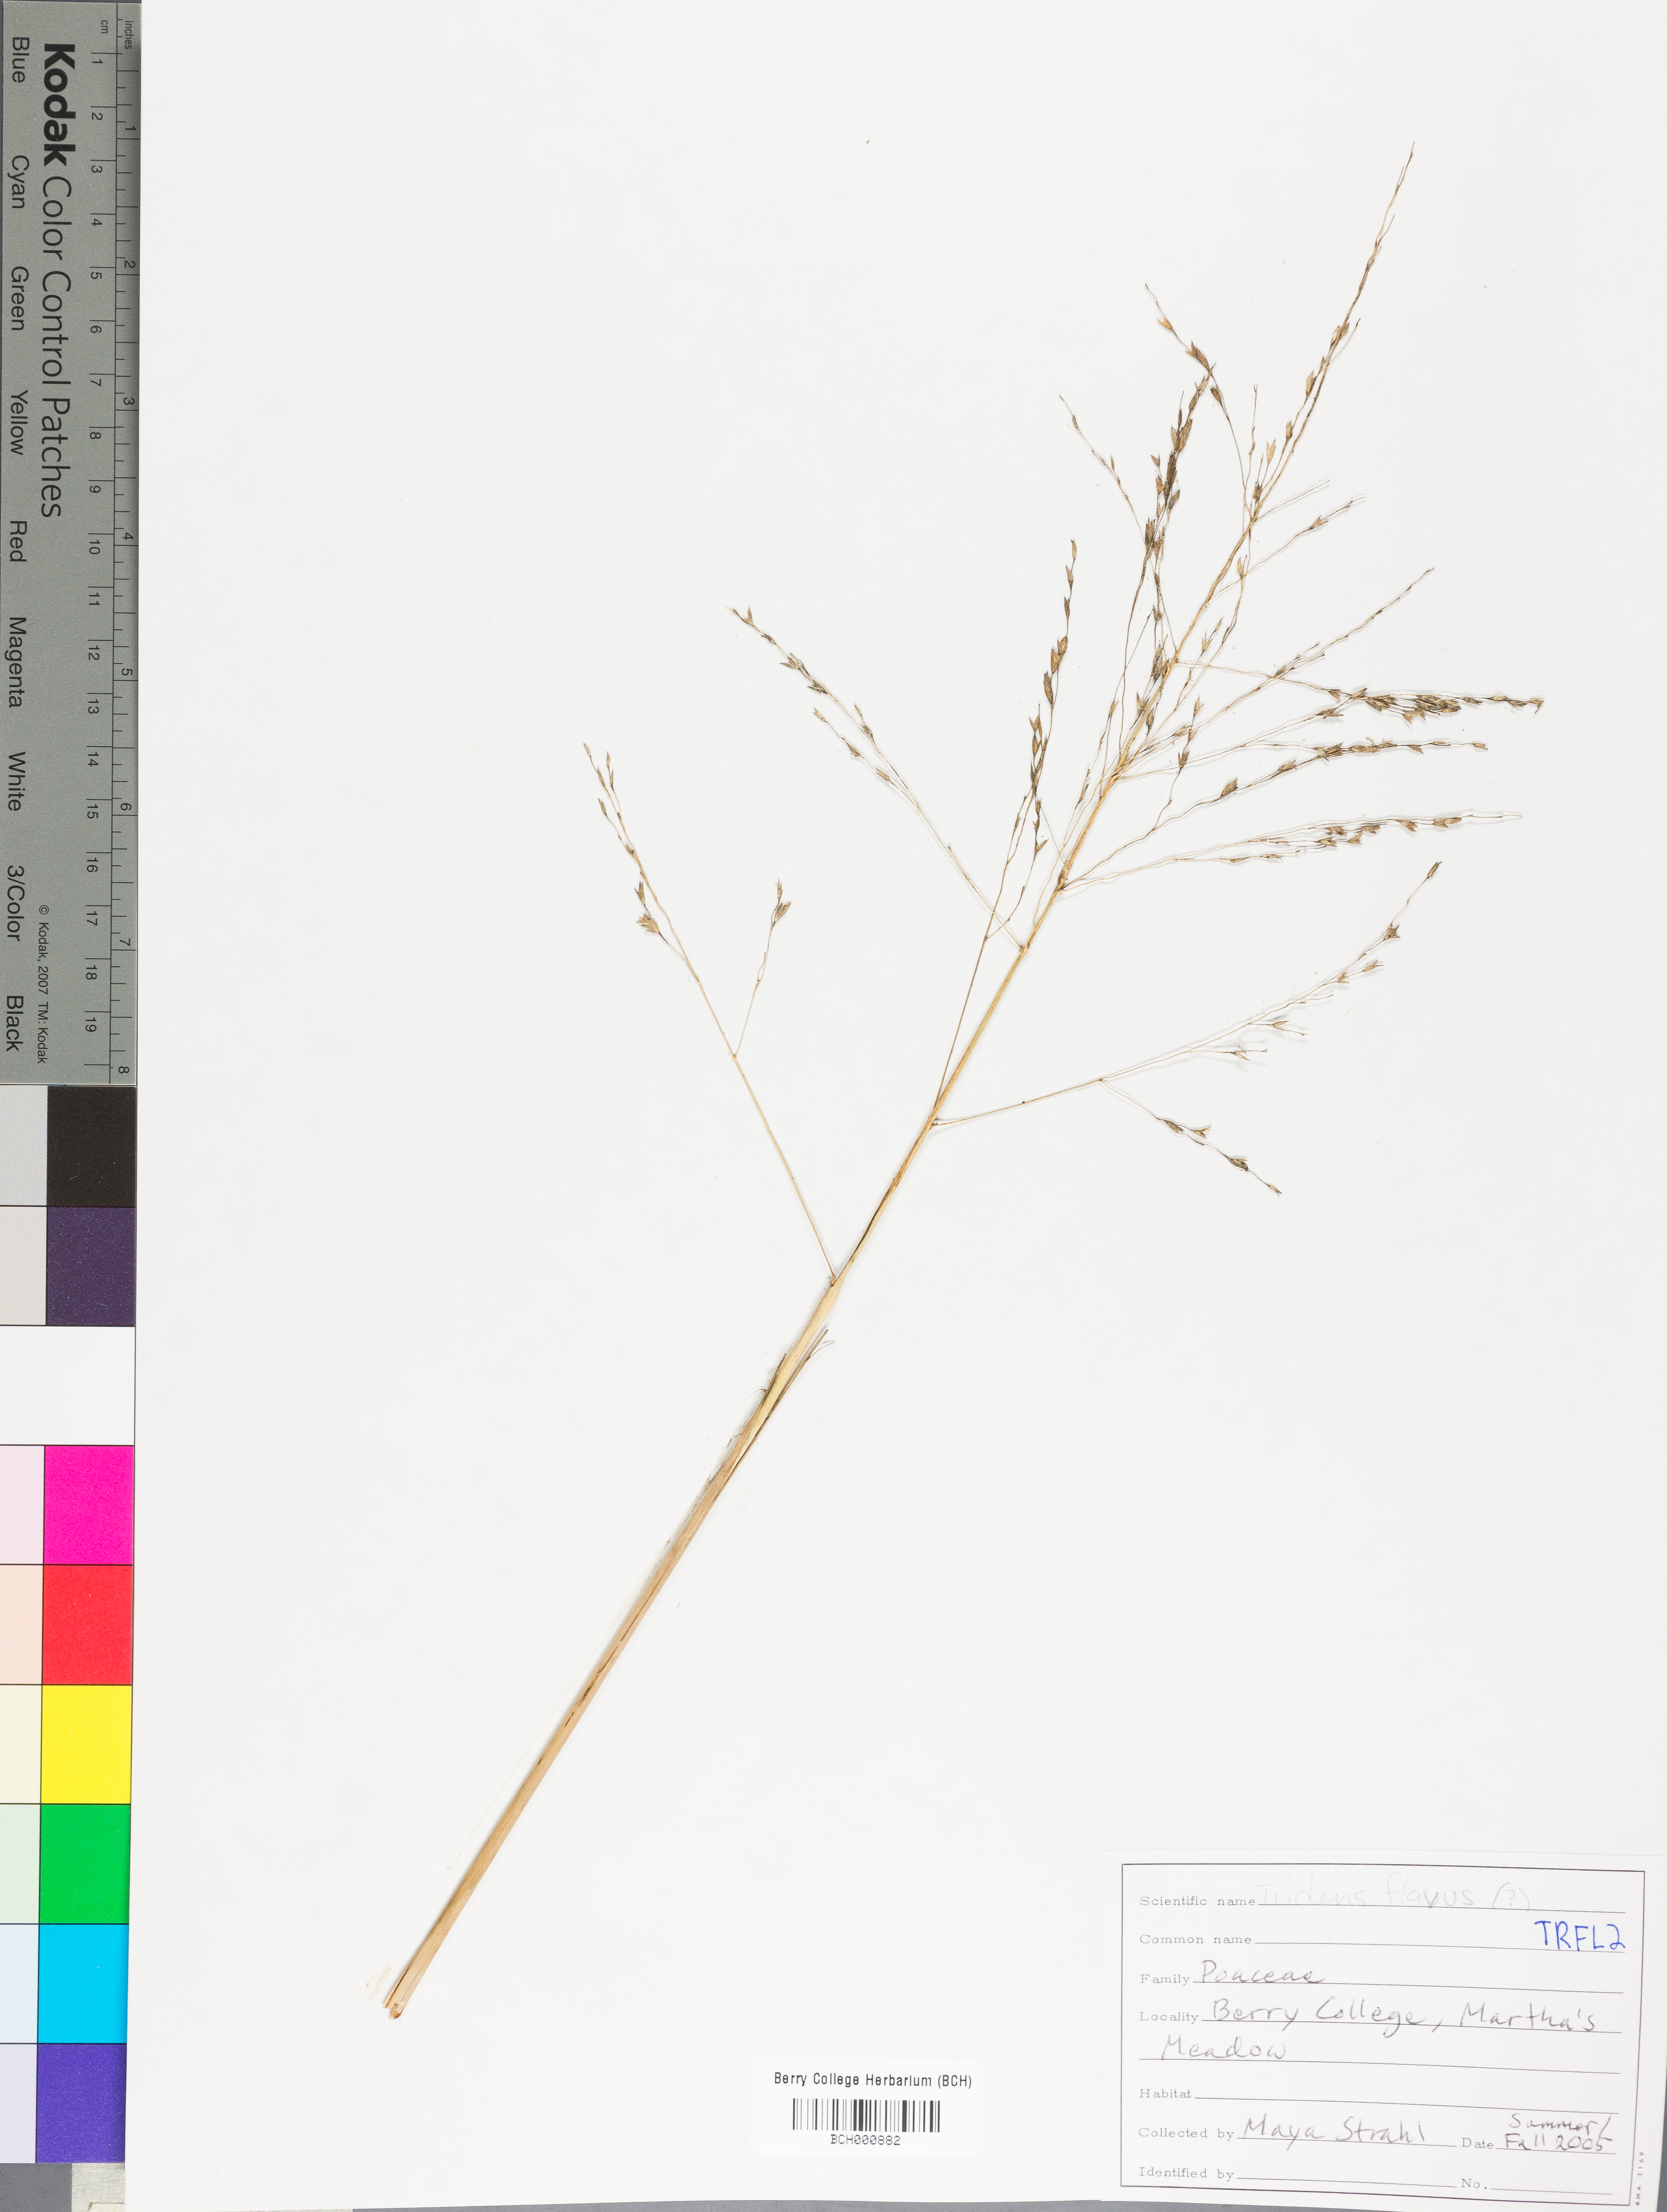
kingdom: Plantae
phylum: Tracheophyta
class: Liliopsida
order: Poales
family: Poaceae
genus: Tridens
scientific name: Tridens flavus
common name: Purpletop
